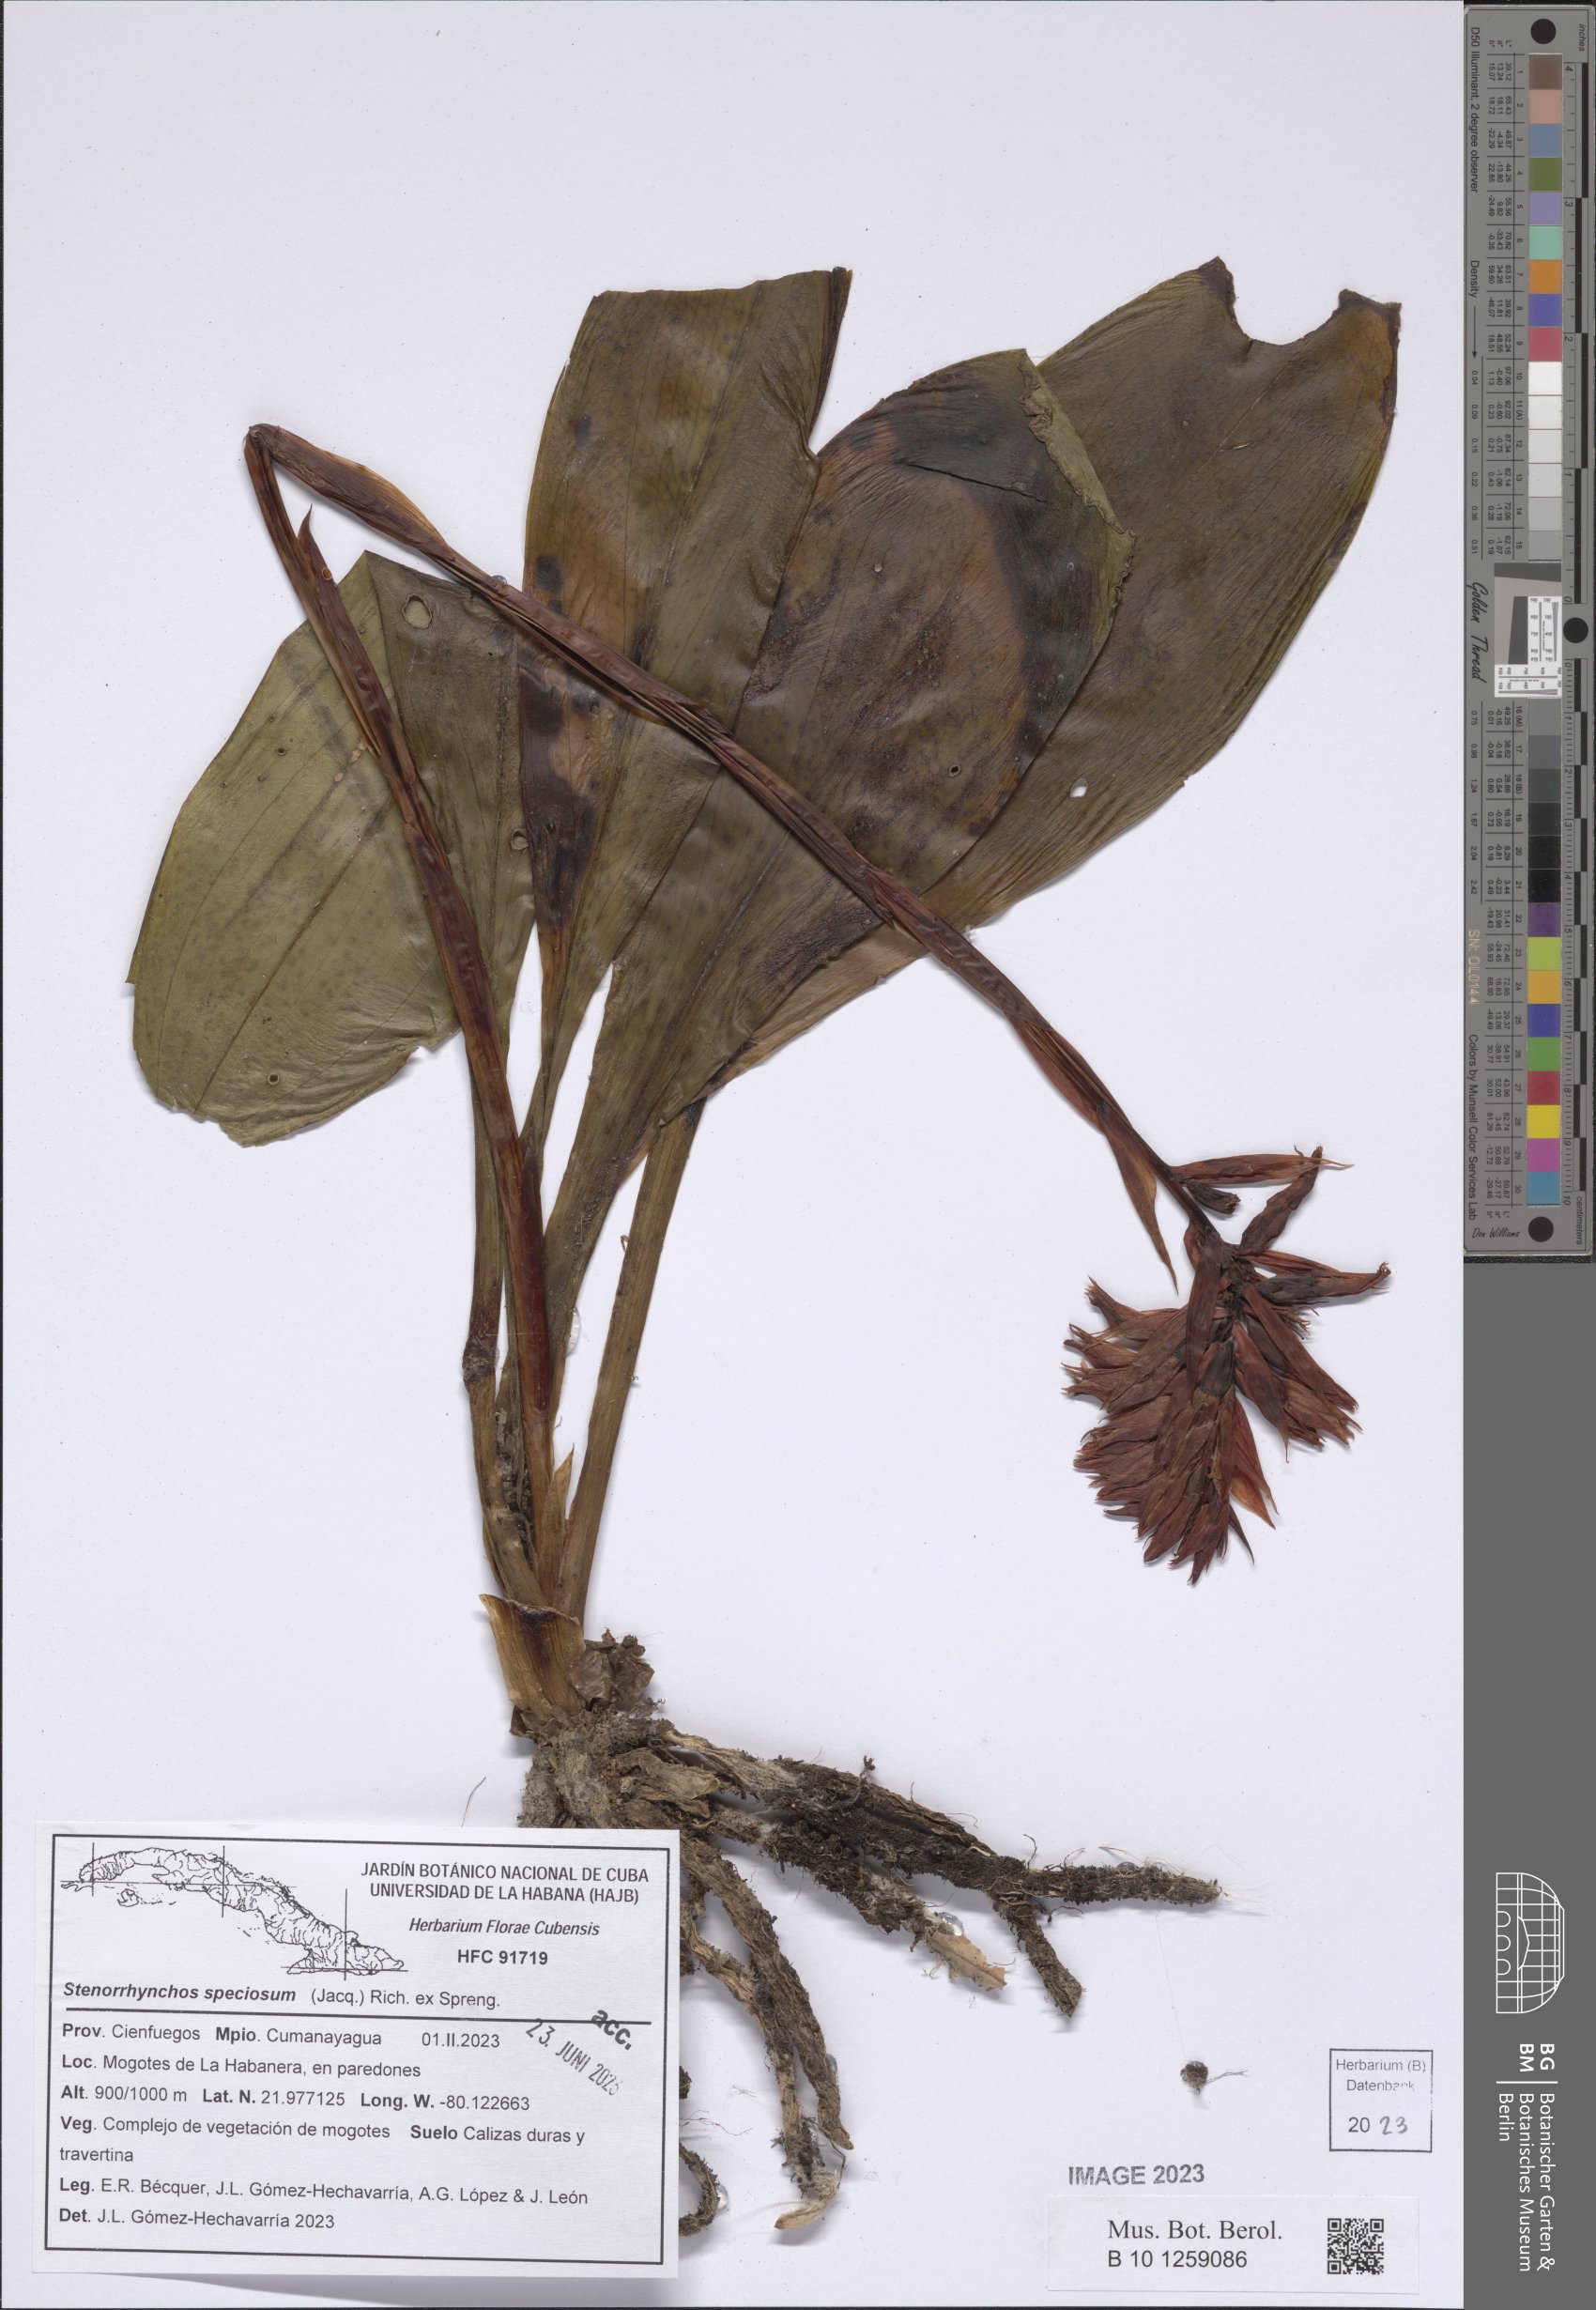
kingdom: Plantae
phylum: Tracheophyta
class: Liliopsida
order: Asparagales
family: Orchidaceae
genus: Stenorrhynchos
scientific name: Stenorrhynchos speciosum
